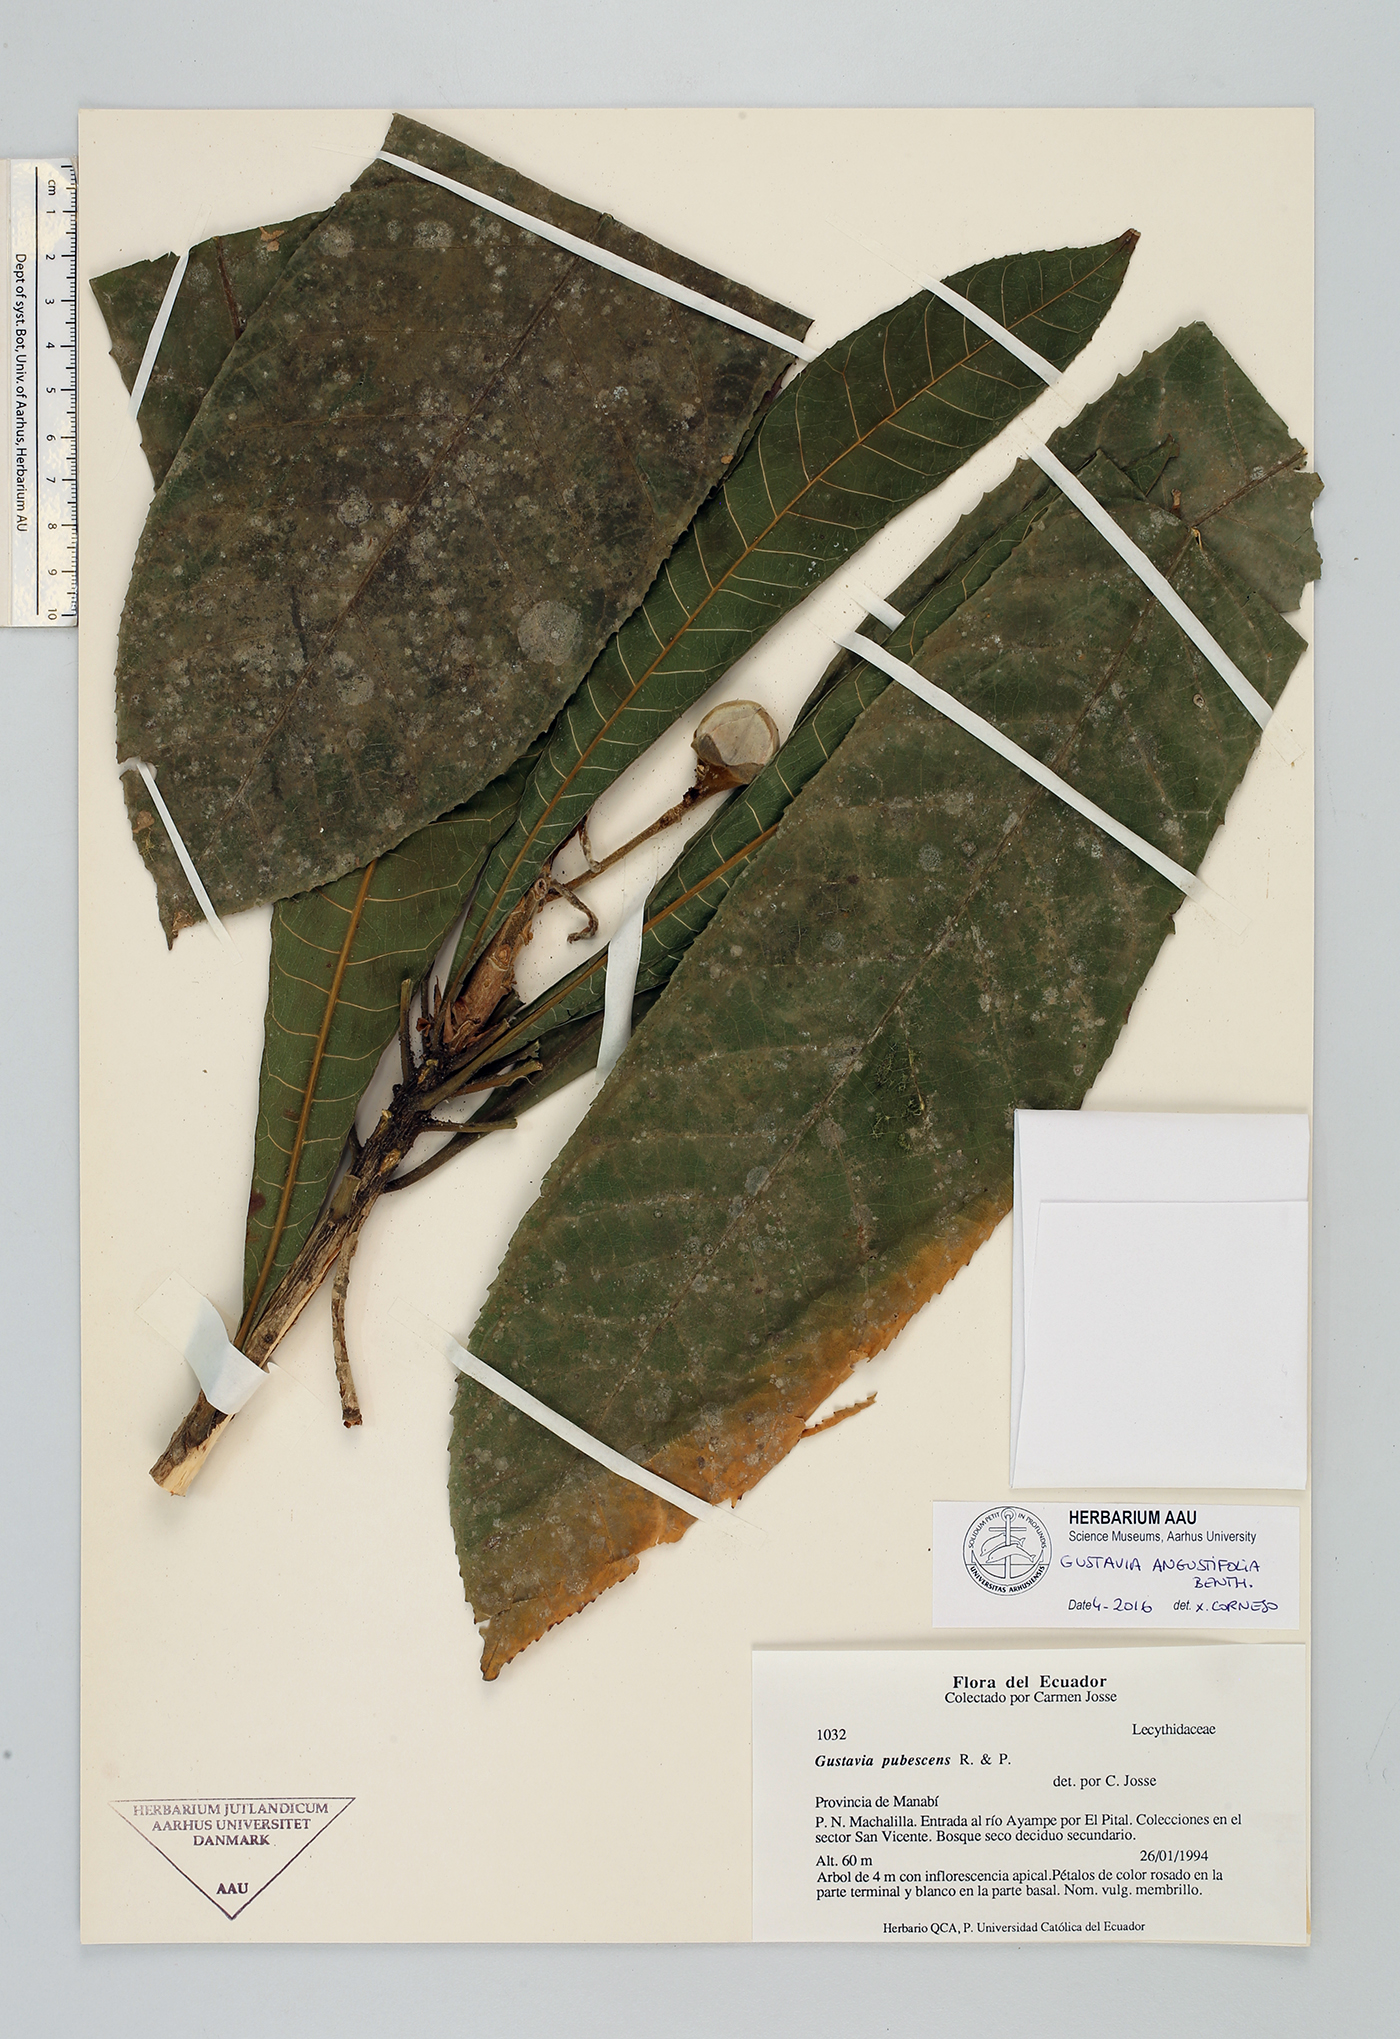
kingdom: Plantae
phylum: Tracheophyta
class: Magnoliopsida
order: Ericales
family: Lecythidaceae
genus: Gustavia
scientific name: Gustavia angustifolia
